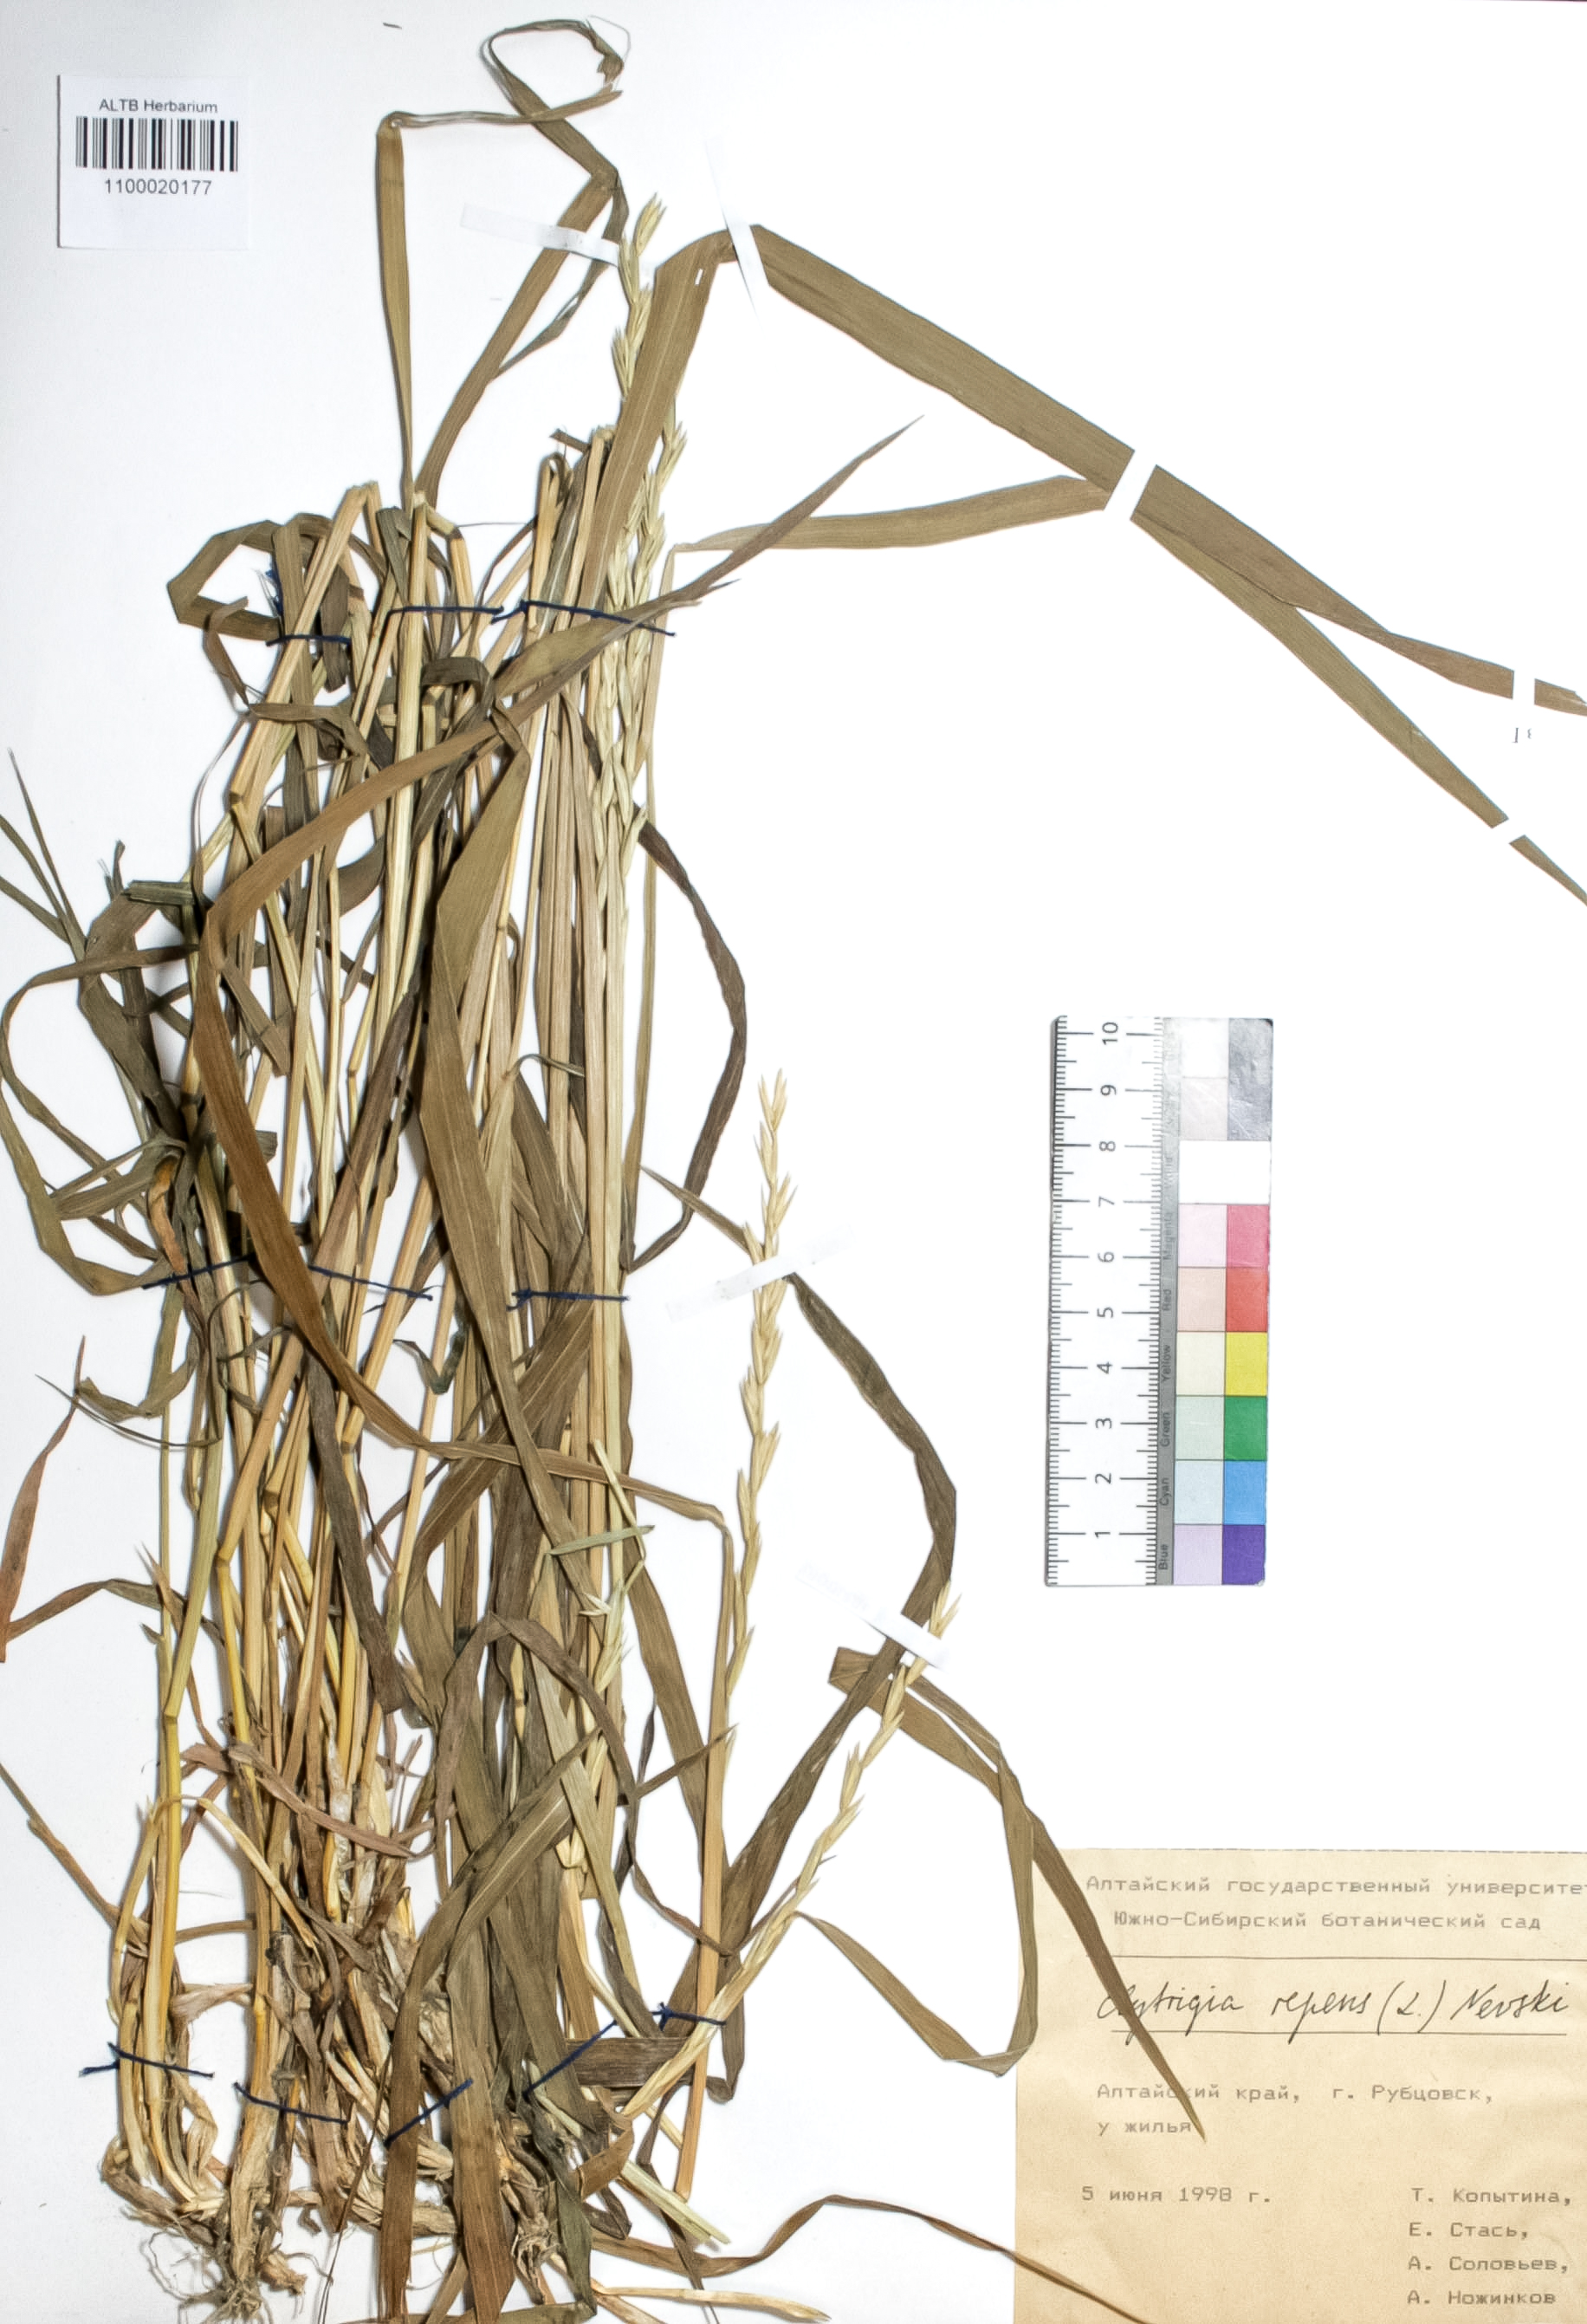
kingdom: Plantae
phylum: Tracheophyta
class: Liliopsida
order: Poales
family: Poaceae
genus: Elymus
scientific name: Elymus repens
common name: Quackgrass
